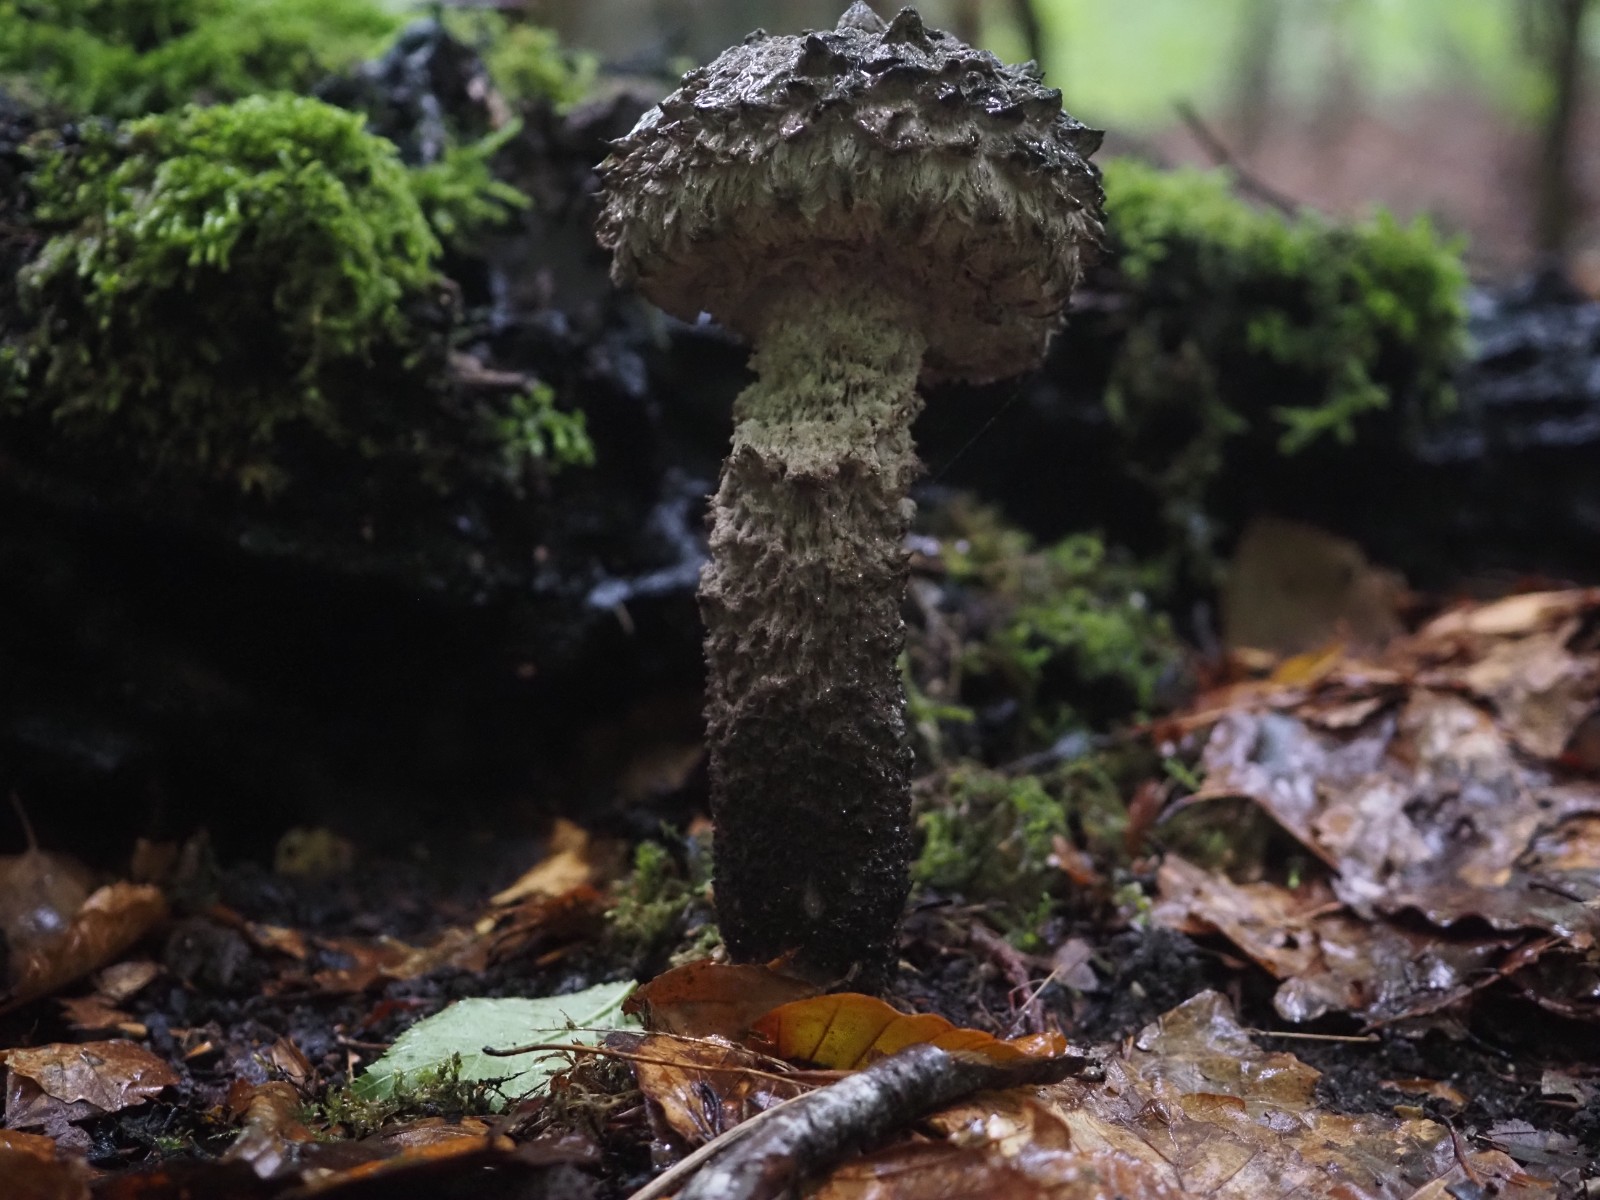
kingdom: Fungi
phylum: Basidiomycota
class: Agaricomycetes
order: Boletales
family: Boletaceae
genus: Strobilomyces
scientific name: Strobilomyces strobilaceus
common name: koglerørhat
